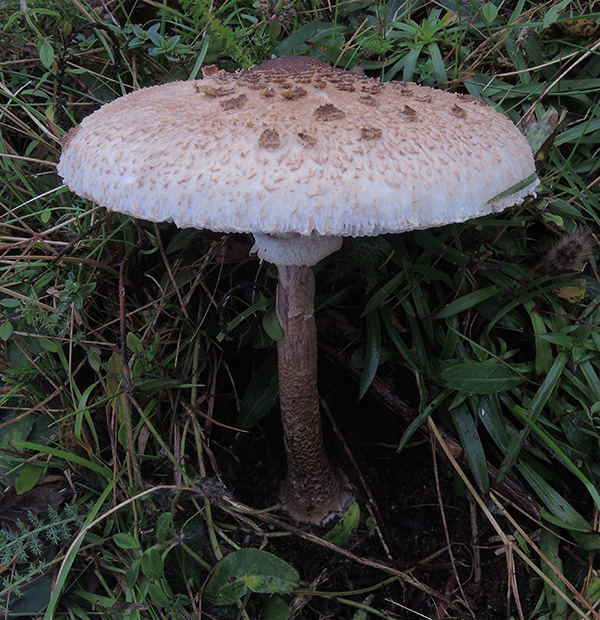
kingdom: Fungi
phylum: Basidiomycota
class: Agaricomycetes
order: Agaricales
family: Agaricaceae
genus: Macrolepiota
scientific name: Macrolepiota procera
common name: stor kæmpeparasolhat
